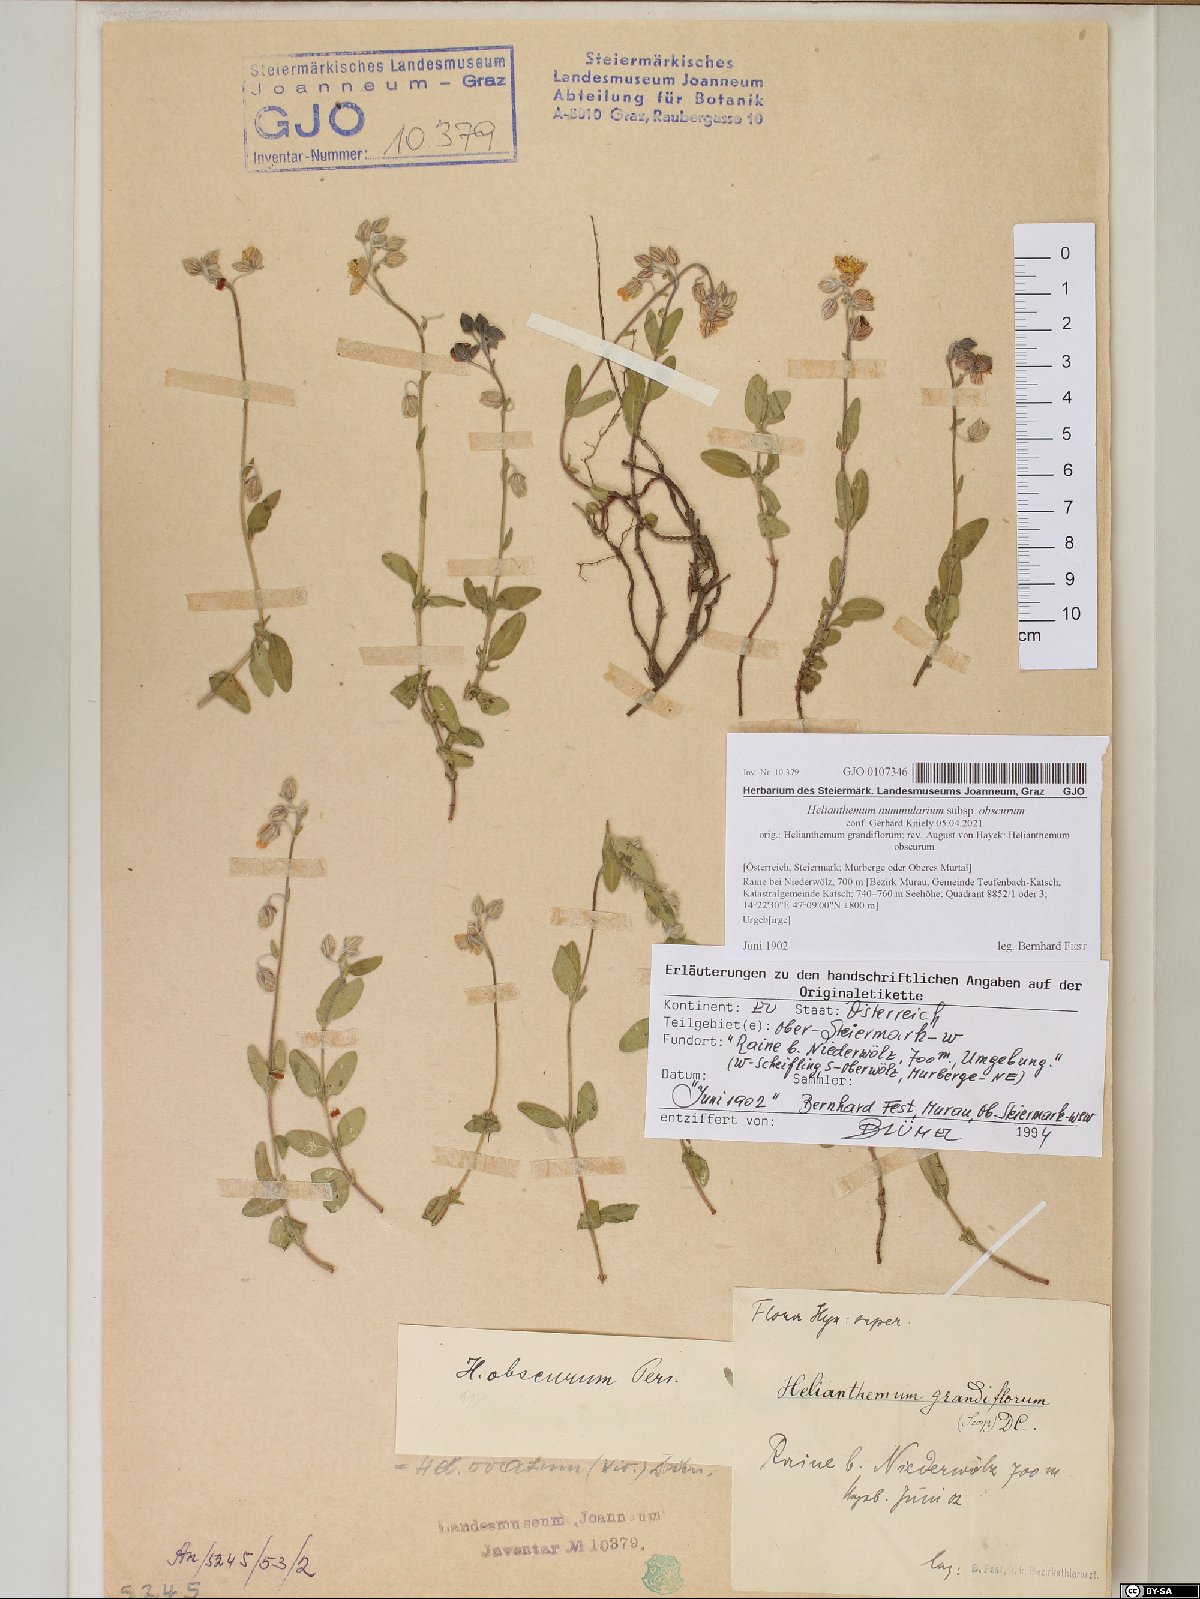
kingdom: Plantae
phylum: Tracheophyta
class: Magnoliopsida
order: Malvales
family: Cistaceae
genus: Helianthemum
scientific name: Helianthemum nummularium
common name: Common rock-rose
